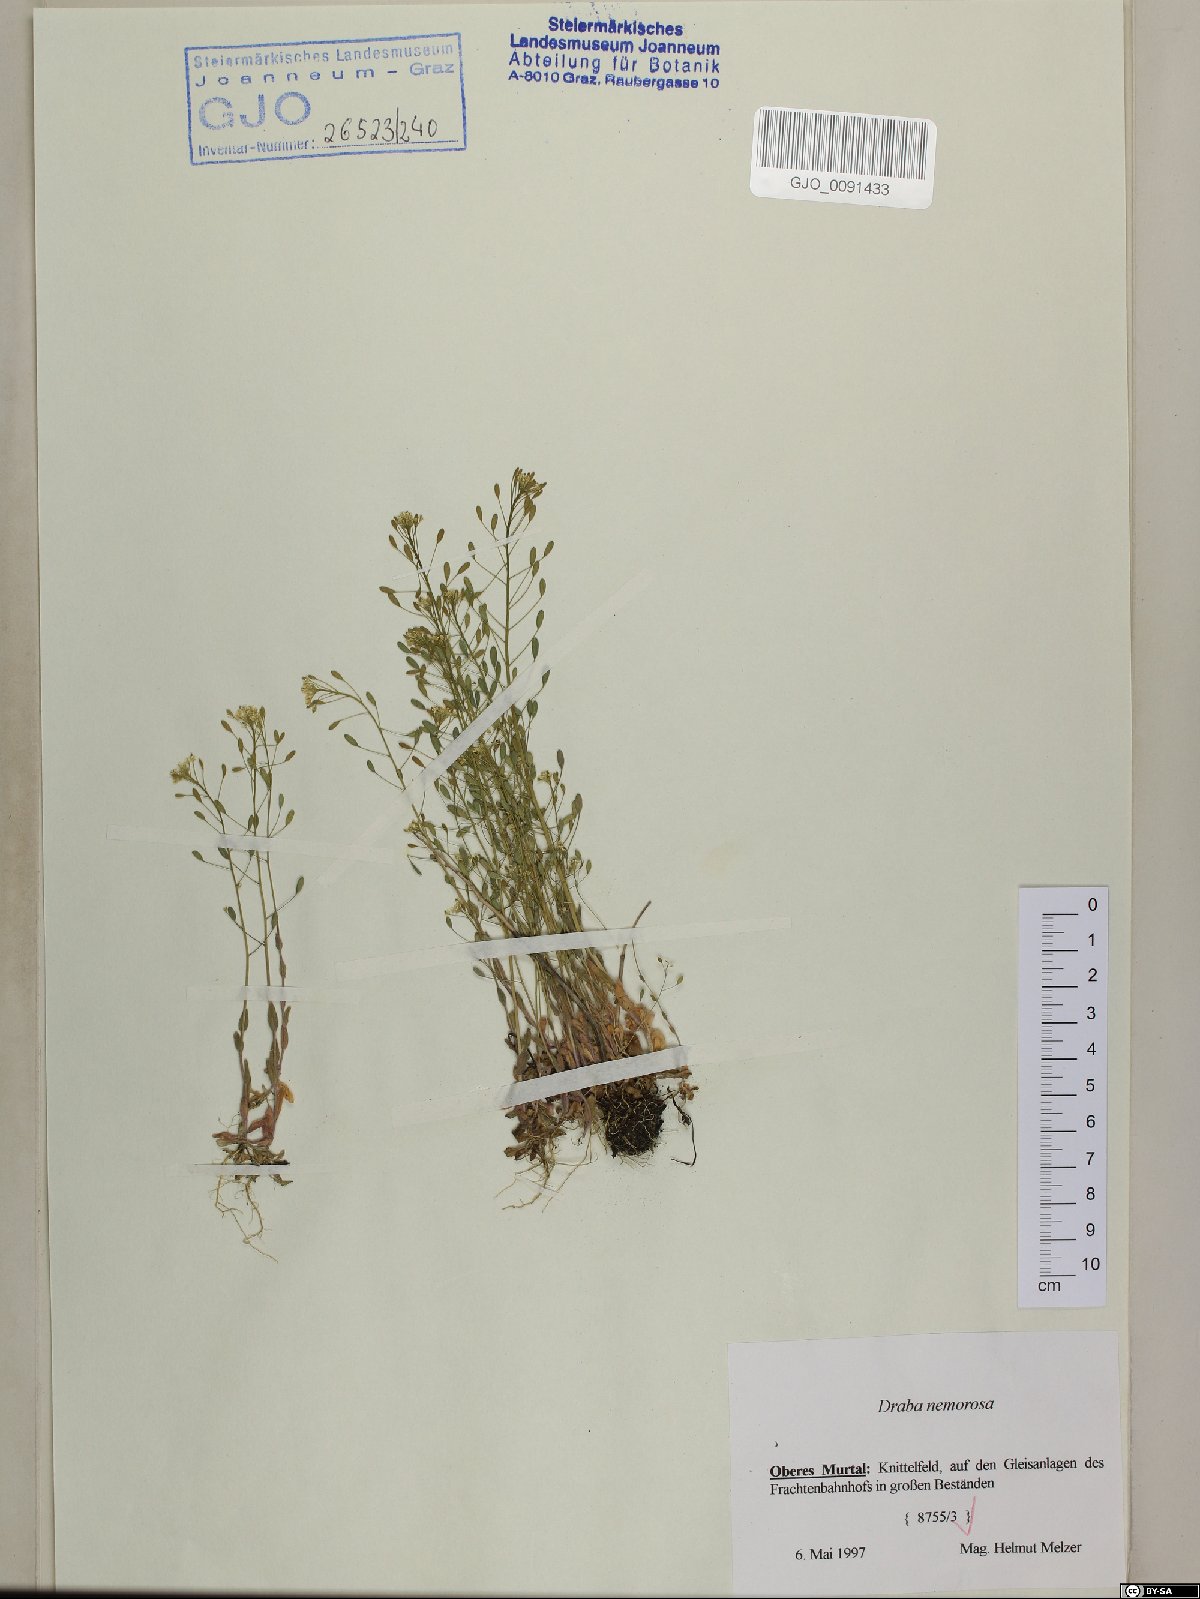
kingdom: Plantae
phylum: Tracheophyta
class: Magnoliopsida
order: Brassicales
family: Brassicaceae
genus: Draba
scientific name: Draba nemorosa
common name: Wood whitlow-grass
